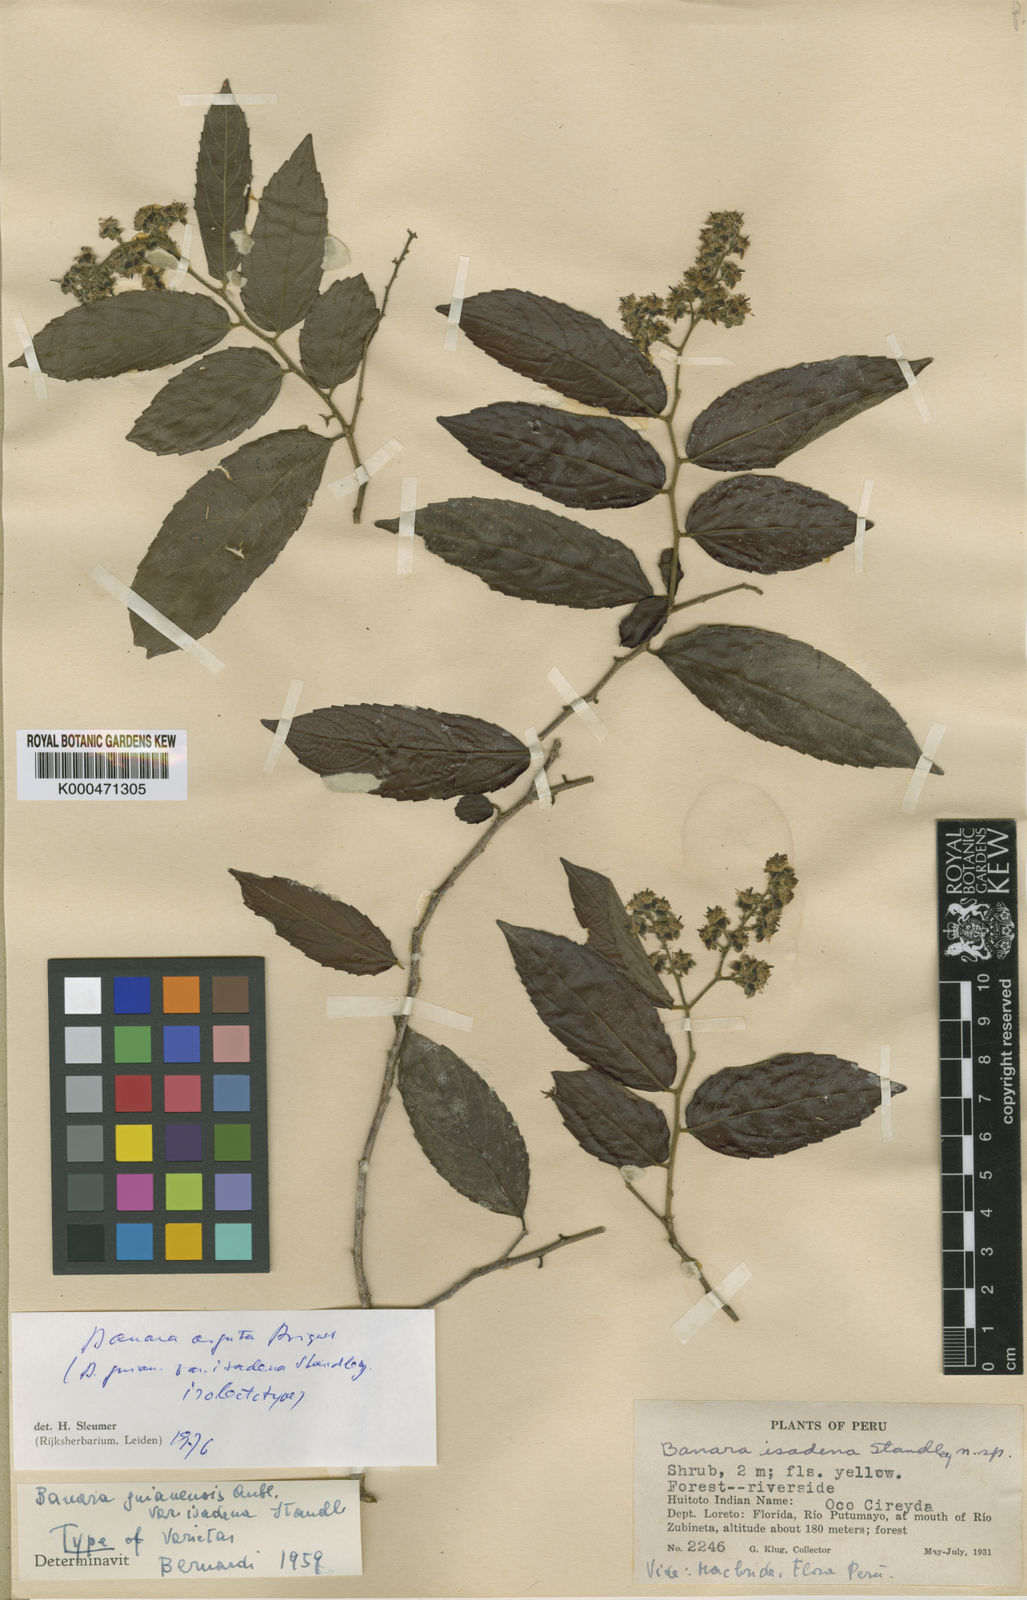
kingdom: Plantae
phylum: Tracheophyta
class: Magnoliopsida
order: Malpighiales
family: Salicaceae
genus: Banara
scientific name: Banara arguta
